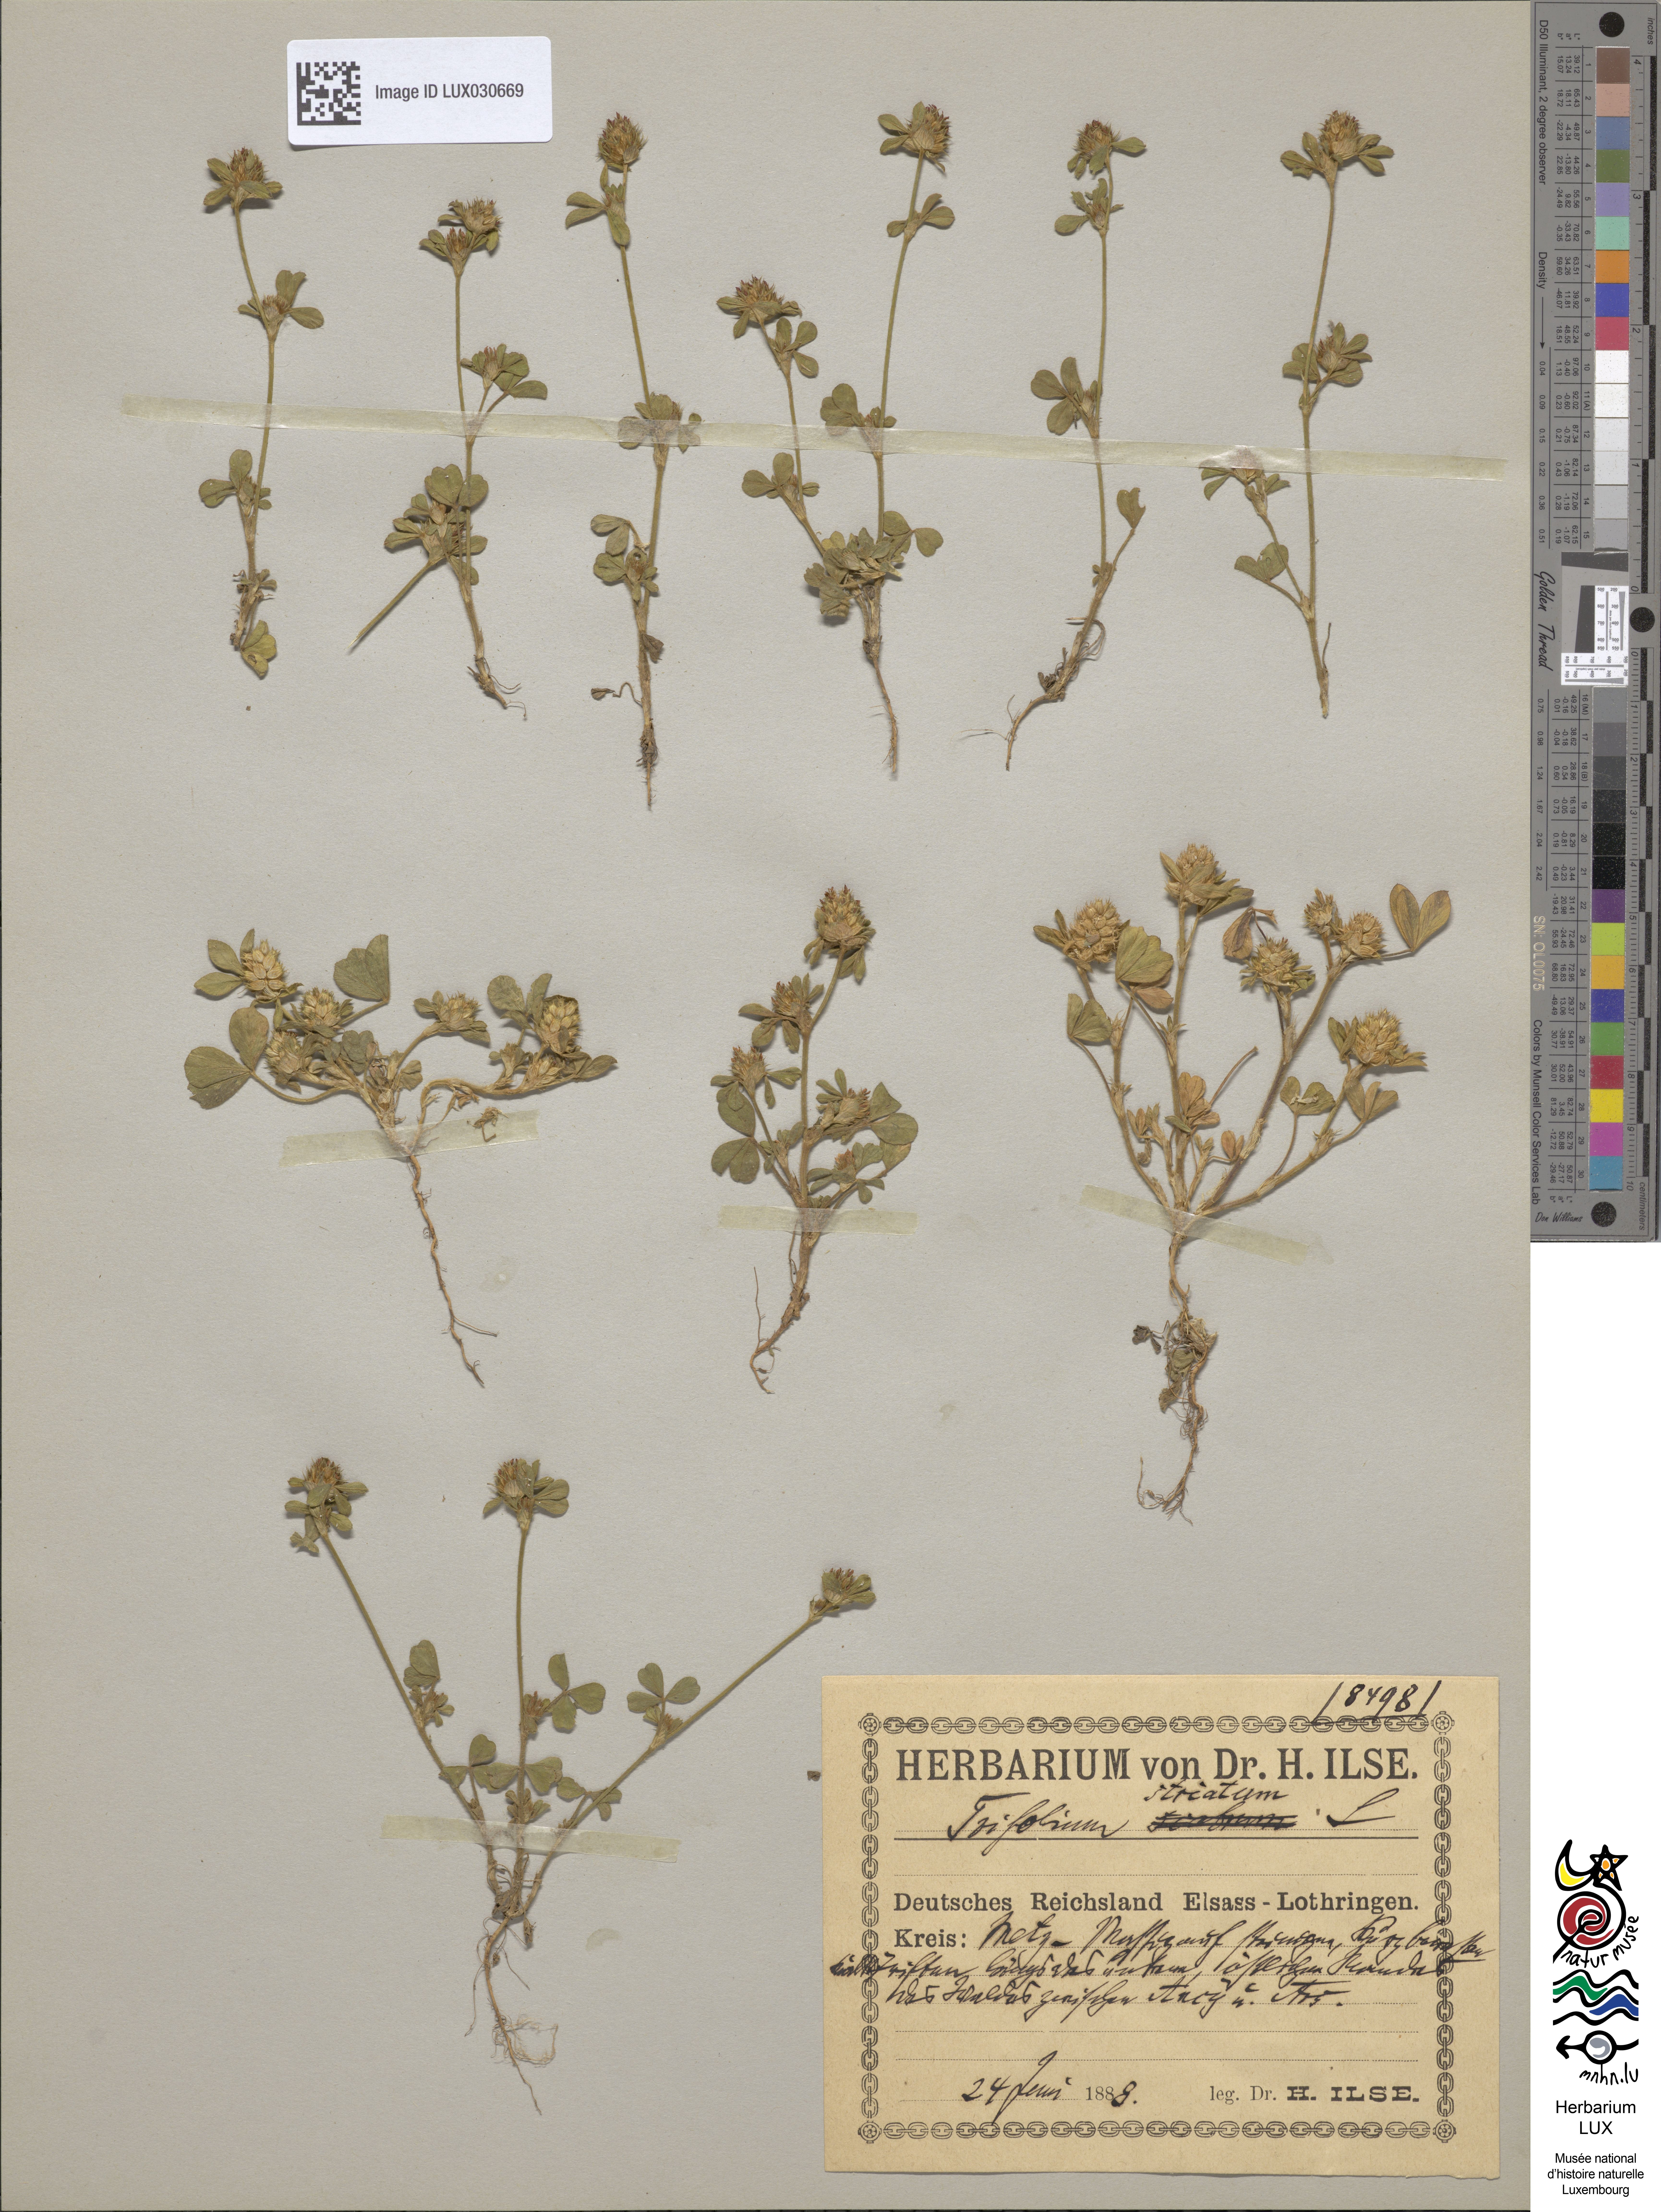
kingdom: Plantae
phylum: Tracheophyta
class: Magnoliopsida
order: Fabales
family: Fabaceae
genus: Trifolium
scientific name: Trifolium striatum
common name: Knotted clover
